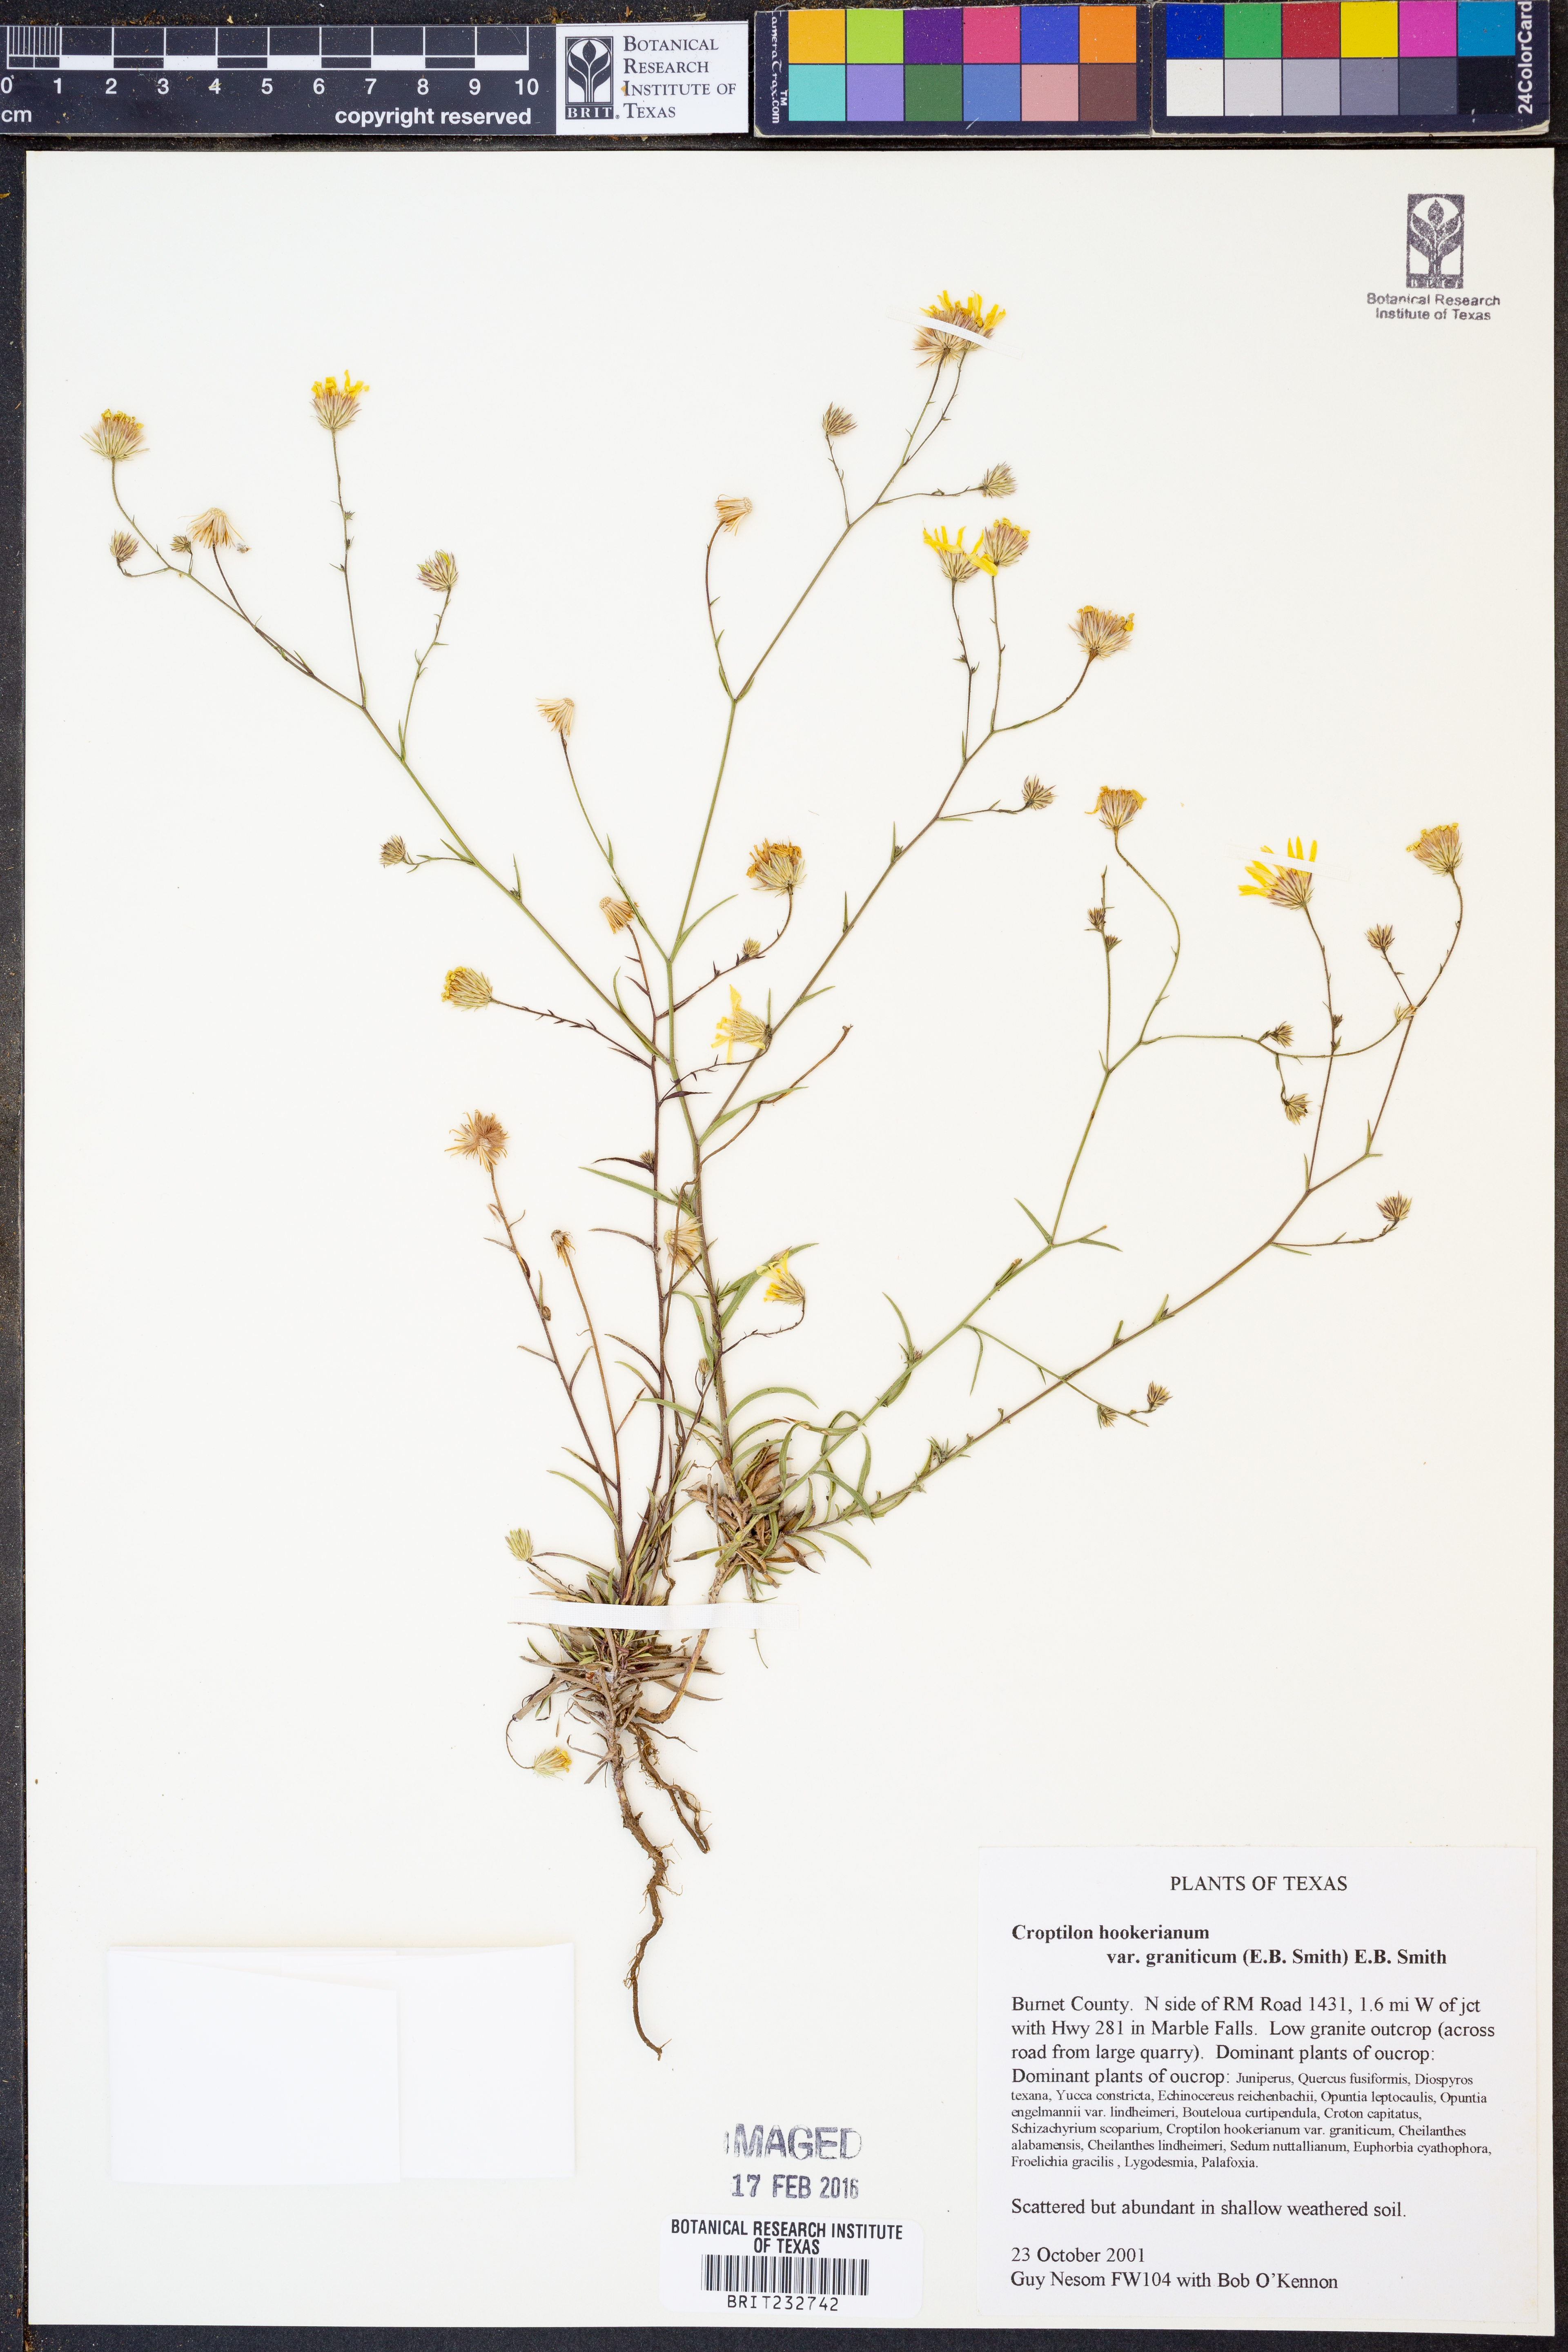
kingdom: Plantae
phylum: Tracheophyta
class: Magnoliopsida
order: Asterales
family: Asteraceae
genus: Croptilon
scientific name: Croptilon hookerianum
